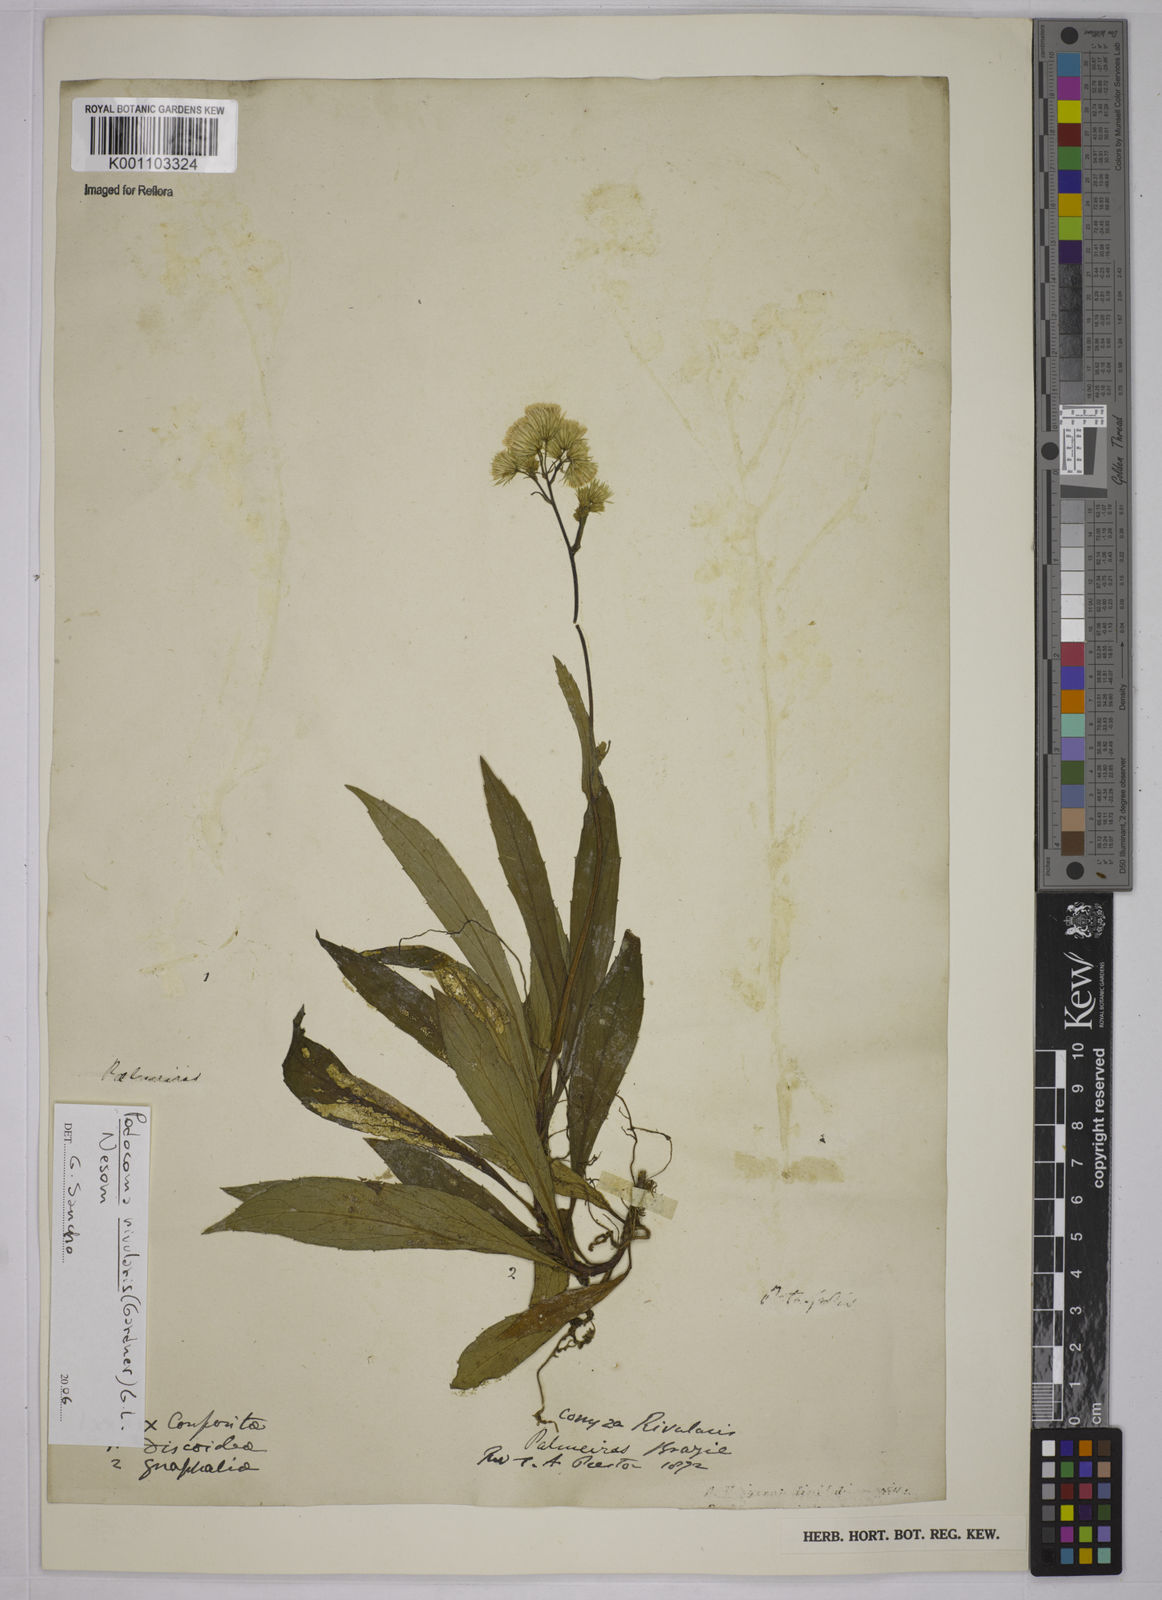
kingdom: Plantae
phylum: Tracheophyta
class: Magnoliopsida
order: Asterales
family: Asteraceae
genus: Exostigma
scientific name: Exostigma rivulare
